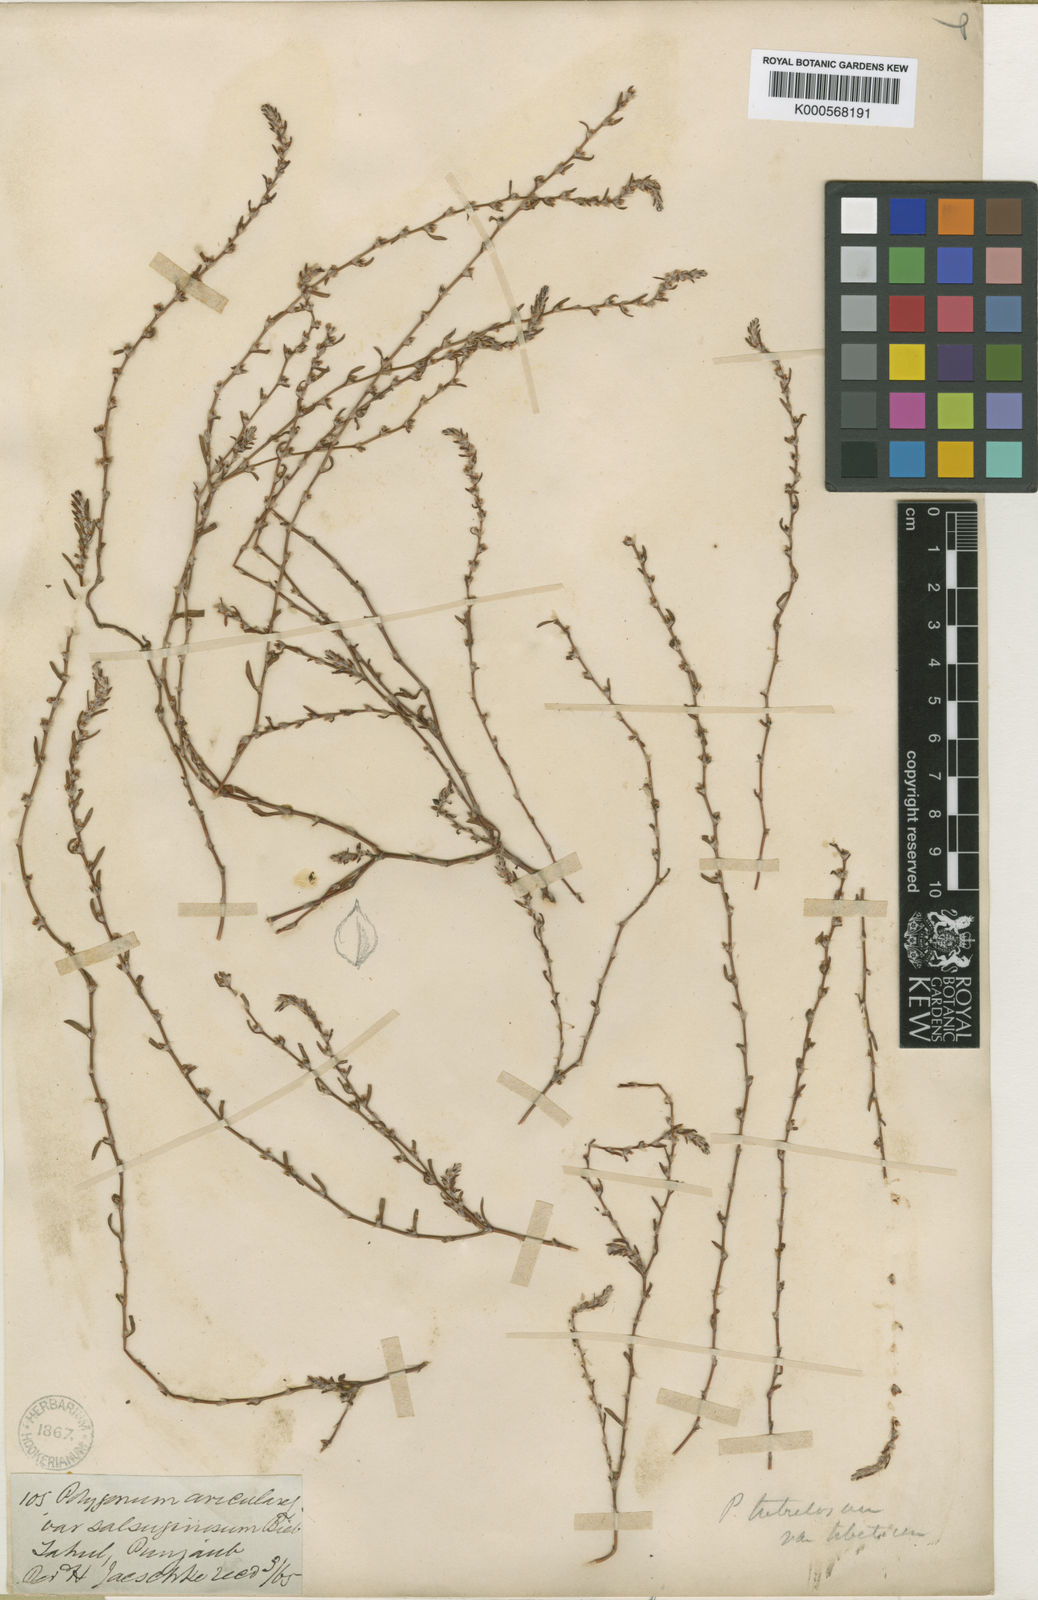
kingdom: Plantae
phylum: Tracheophyta
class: Magnoliopsida
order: Caryophyllales
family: Polygonaceae
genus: Polygonum
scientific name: Polygonum rottboellioides
